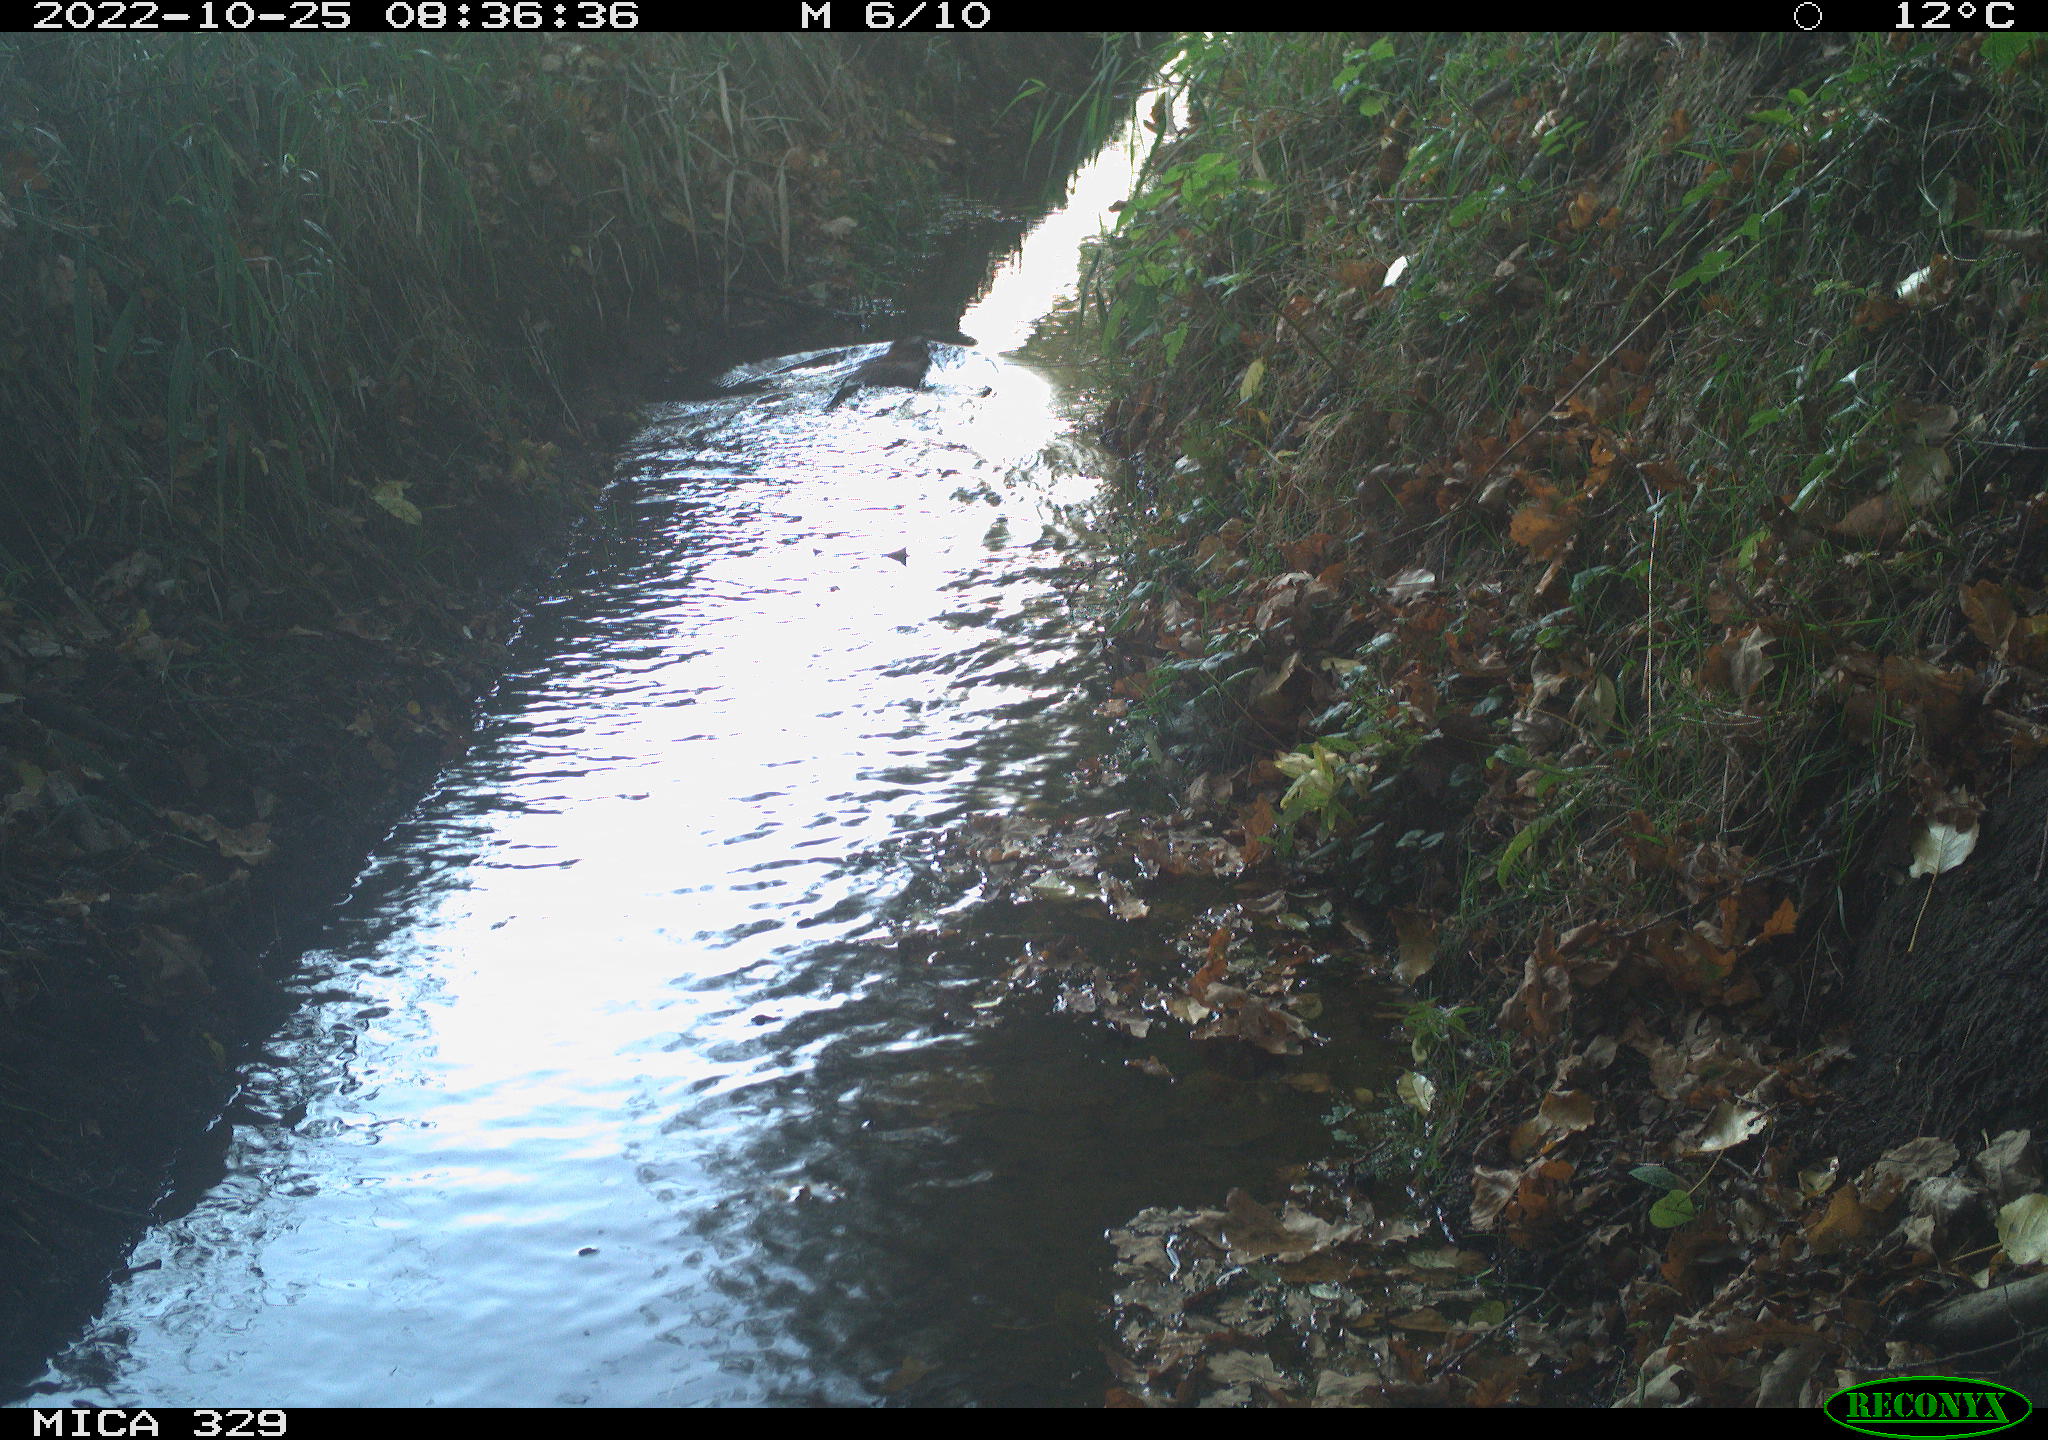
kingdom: Animalia
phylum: Chordata
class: Mammalia
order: Rodentia
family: Cricetidae
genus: Ondatra
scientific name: Ondatra zibethicus
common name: Muskrat
